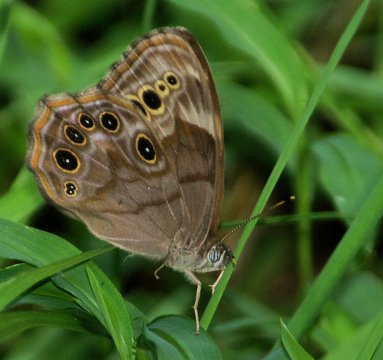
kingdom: Animalia
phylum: Arthropoda
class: Insecta
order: Lepidoptera
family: Nymphalidae
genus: Lethe
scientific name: Lethe anthedon
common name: Northern Pearly-Eye
